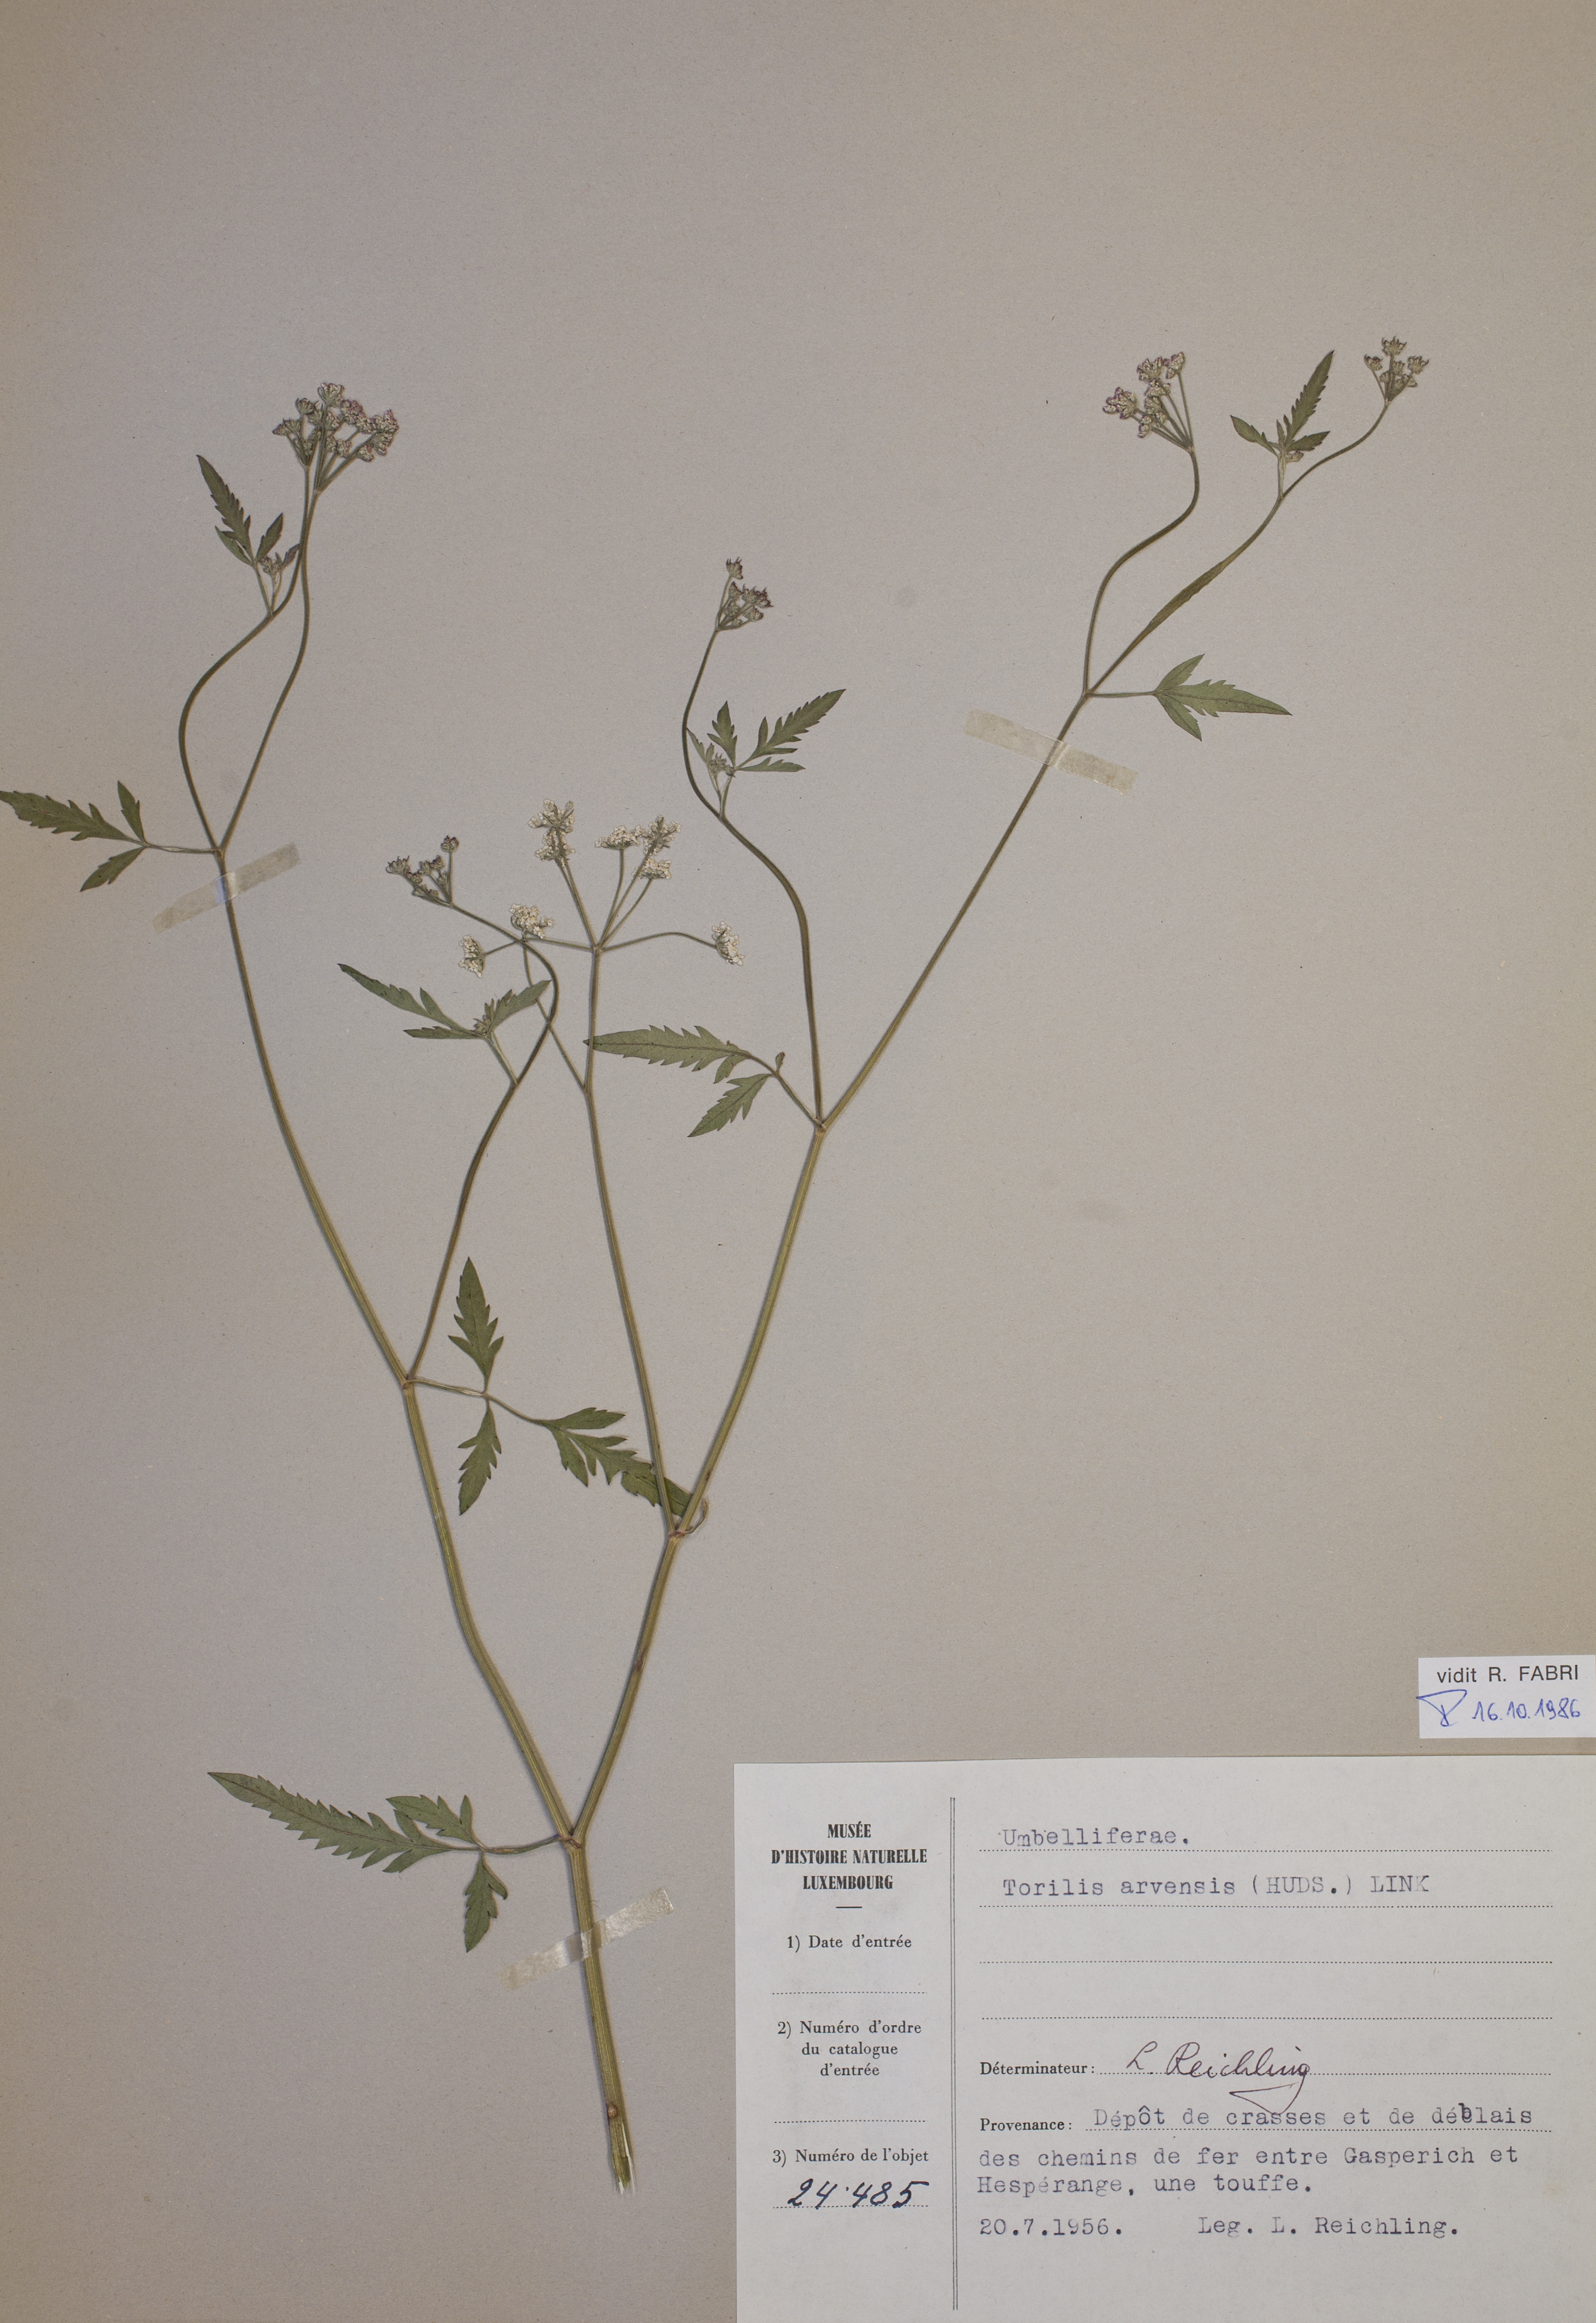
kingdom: Plantae
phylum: Tracheophyta
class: Magnoliopsida
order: Apiales
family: Apiaceae
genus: Torilis
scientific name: Torilis arvensis
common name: Spreading hedge-parsley
